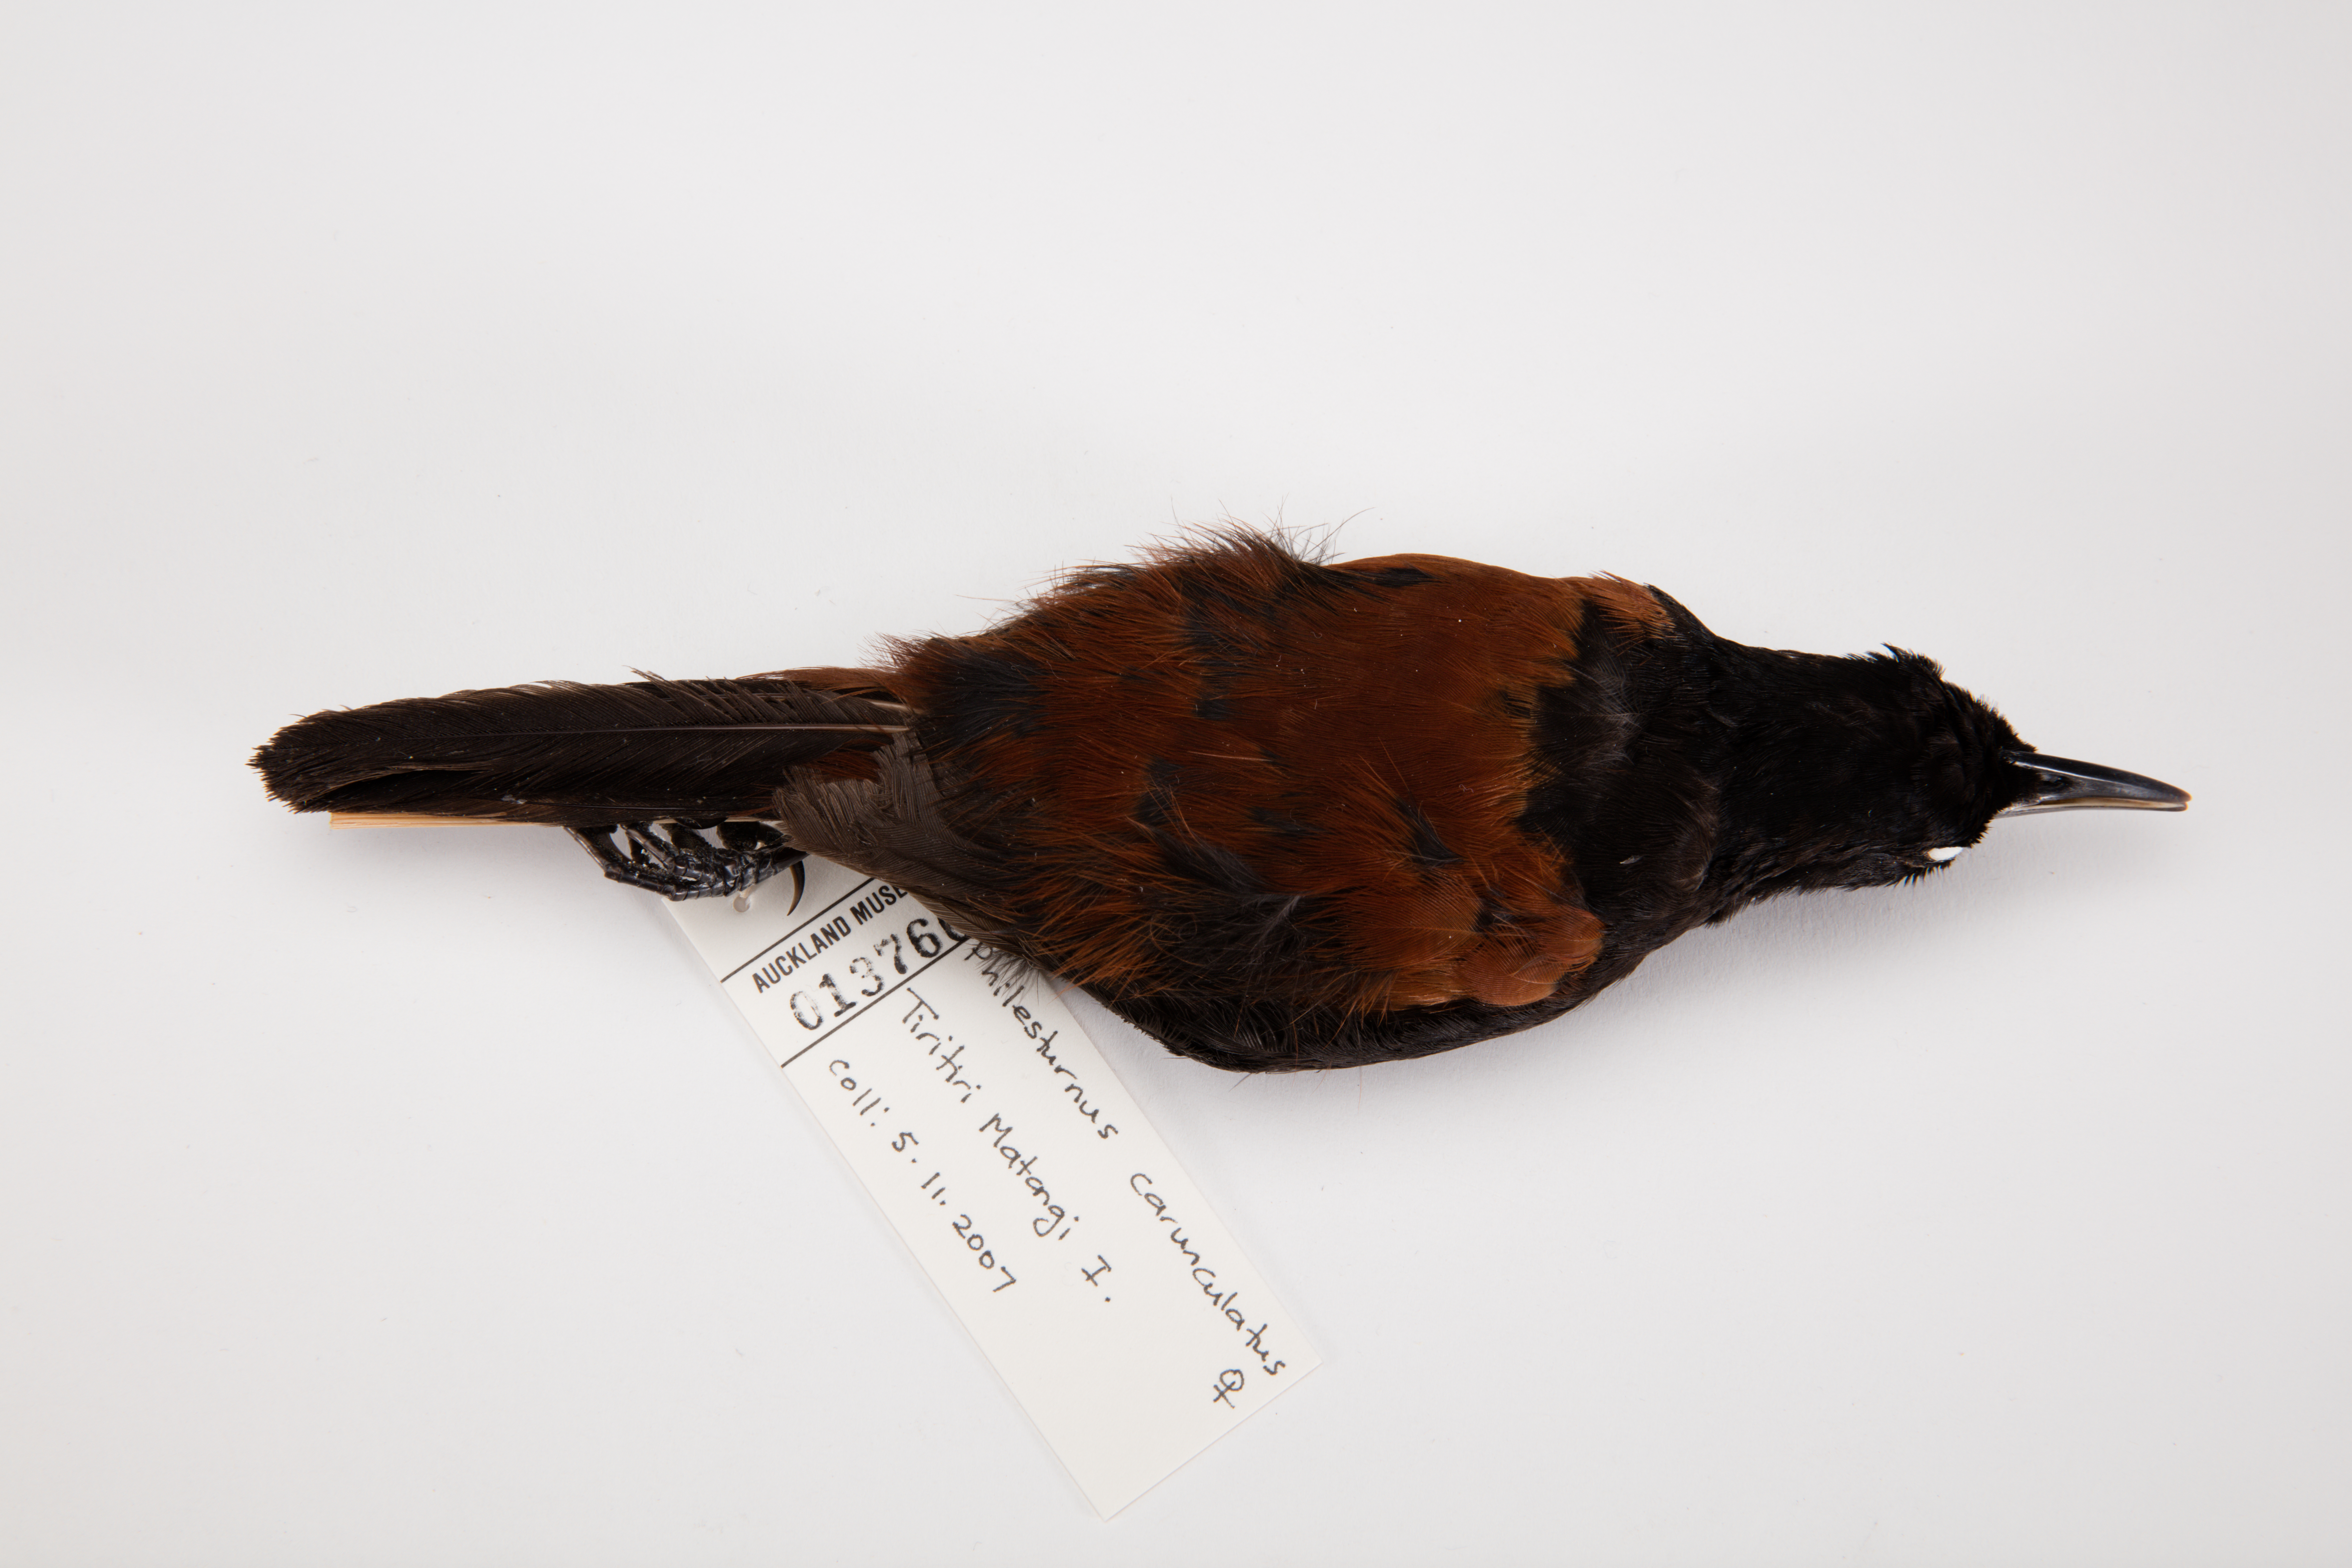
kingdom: Animalia
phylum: Chordata
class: Aves
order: Passeriformes
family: Callaeatidae
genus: Philesturnus
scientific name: Philesturnus carunculatus
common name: South island saddleback
